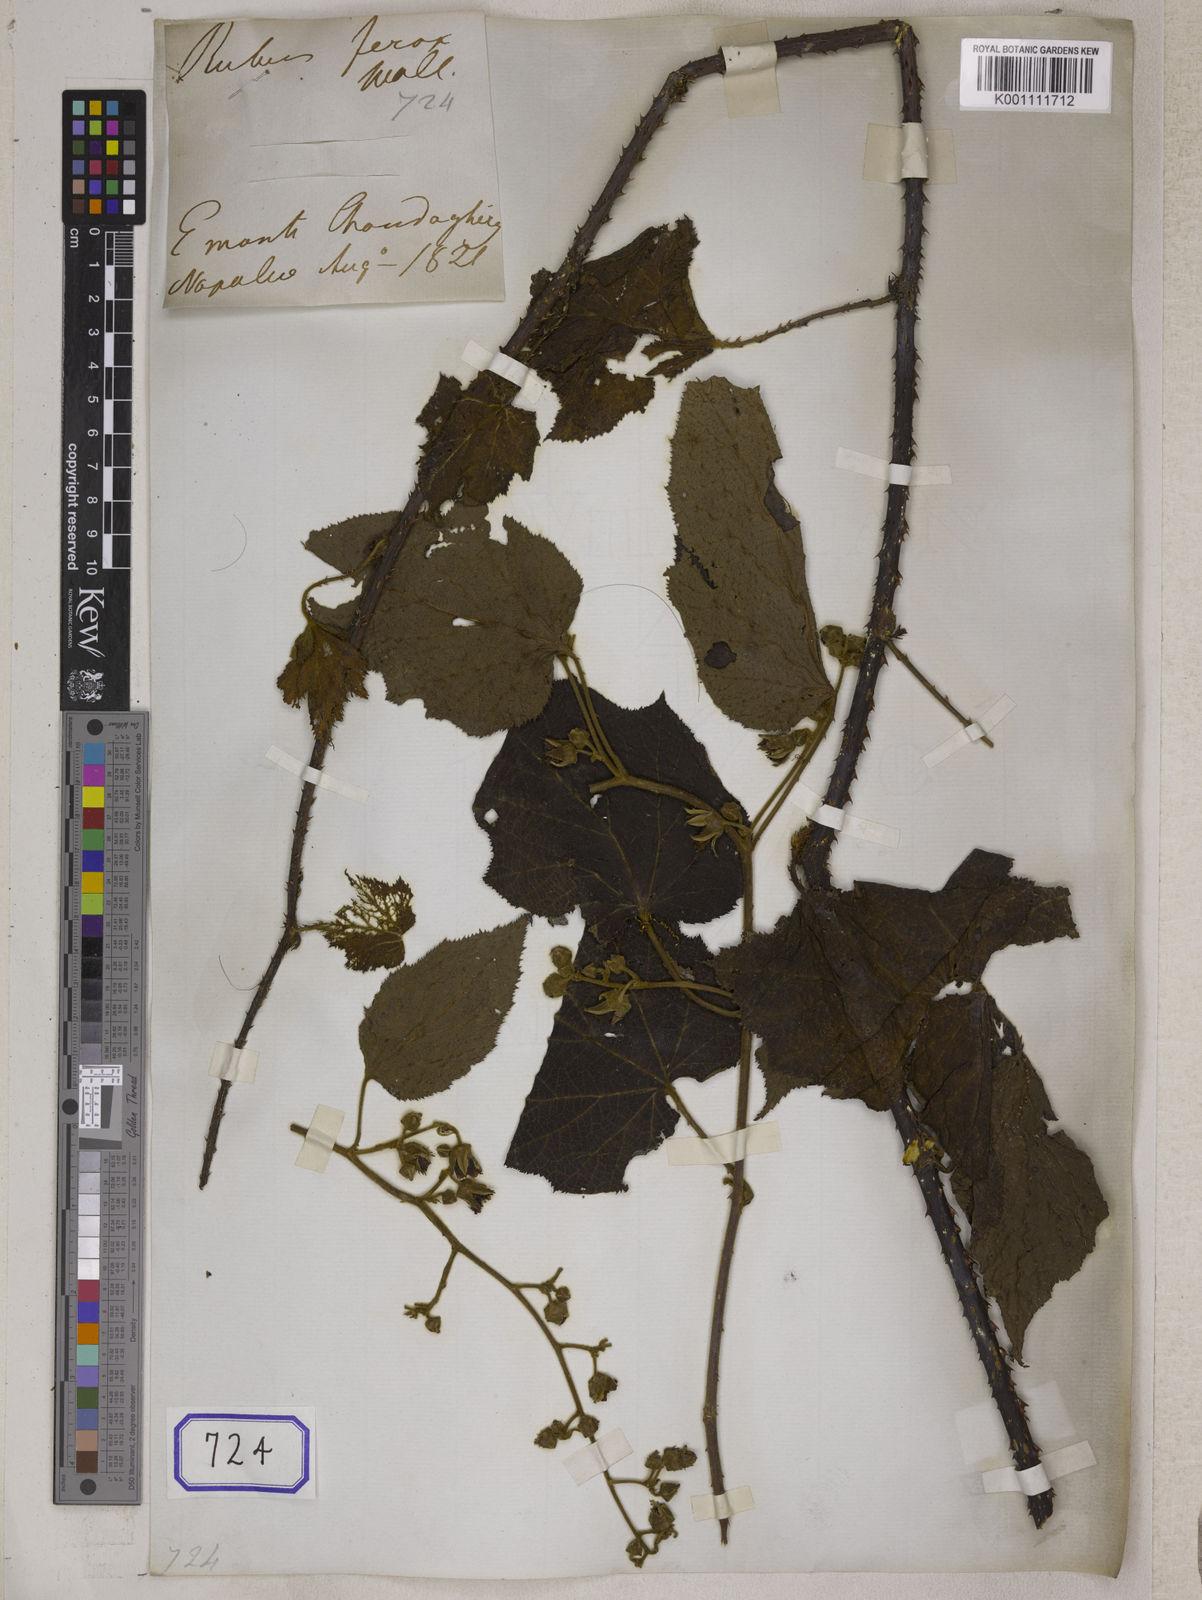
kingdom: Plantae
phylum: Tracheophyta
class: Magnoliopsida
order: Rosales
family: Rosaceae
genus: Rubus
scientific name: Rubus
